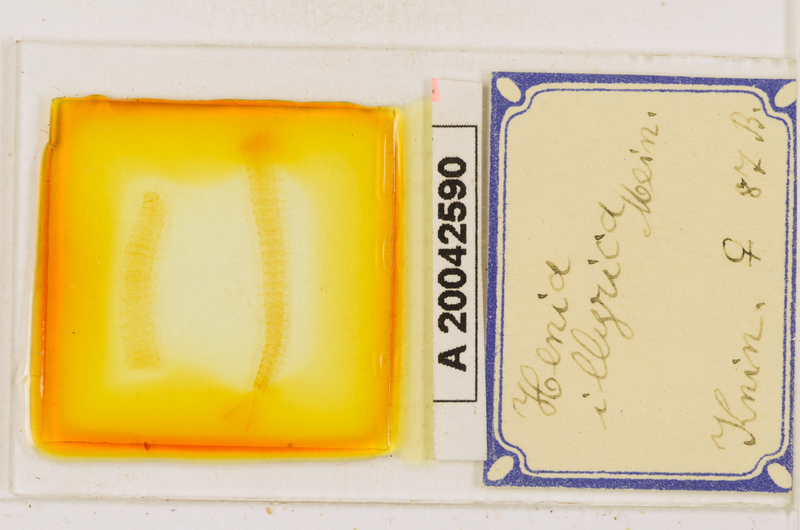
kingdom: Animalia
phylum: Arthropoda
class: Chilopoda
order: Geophilomorpha
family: Dignathodontidae
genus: Henia
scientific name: Henia illyrica
